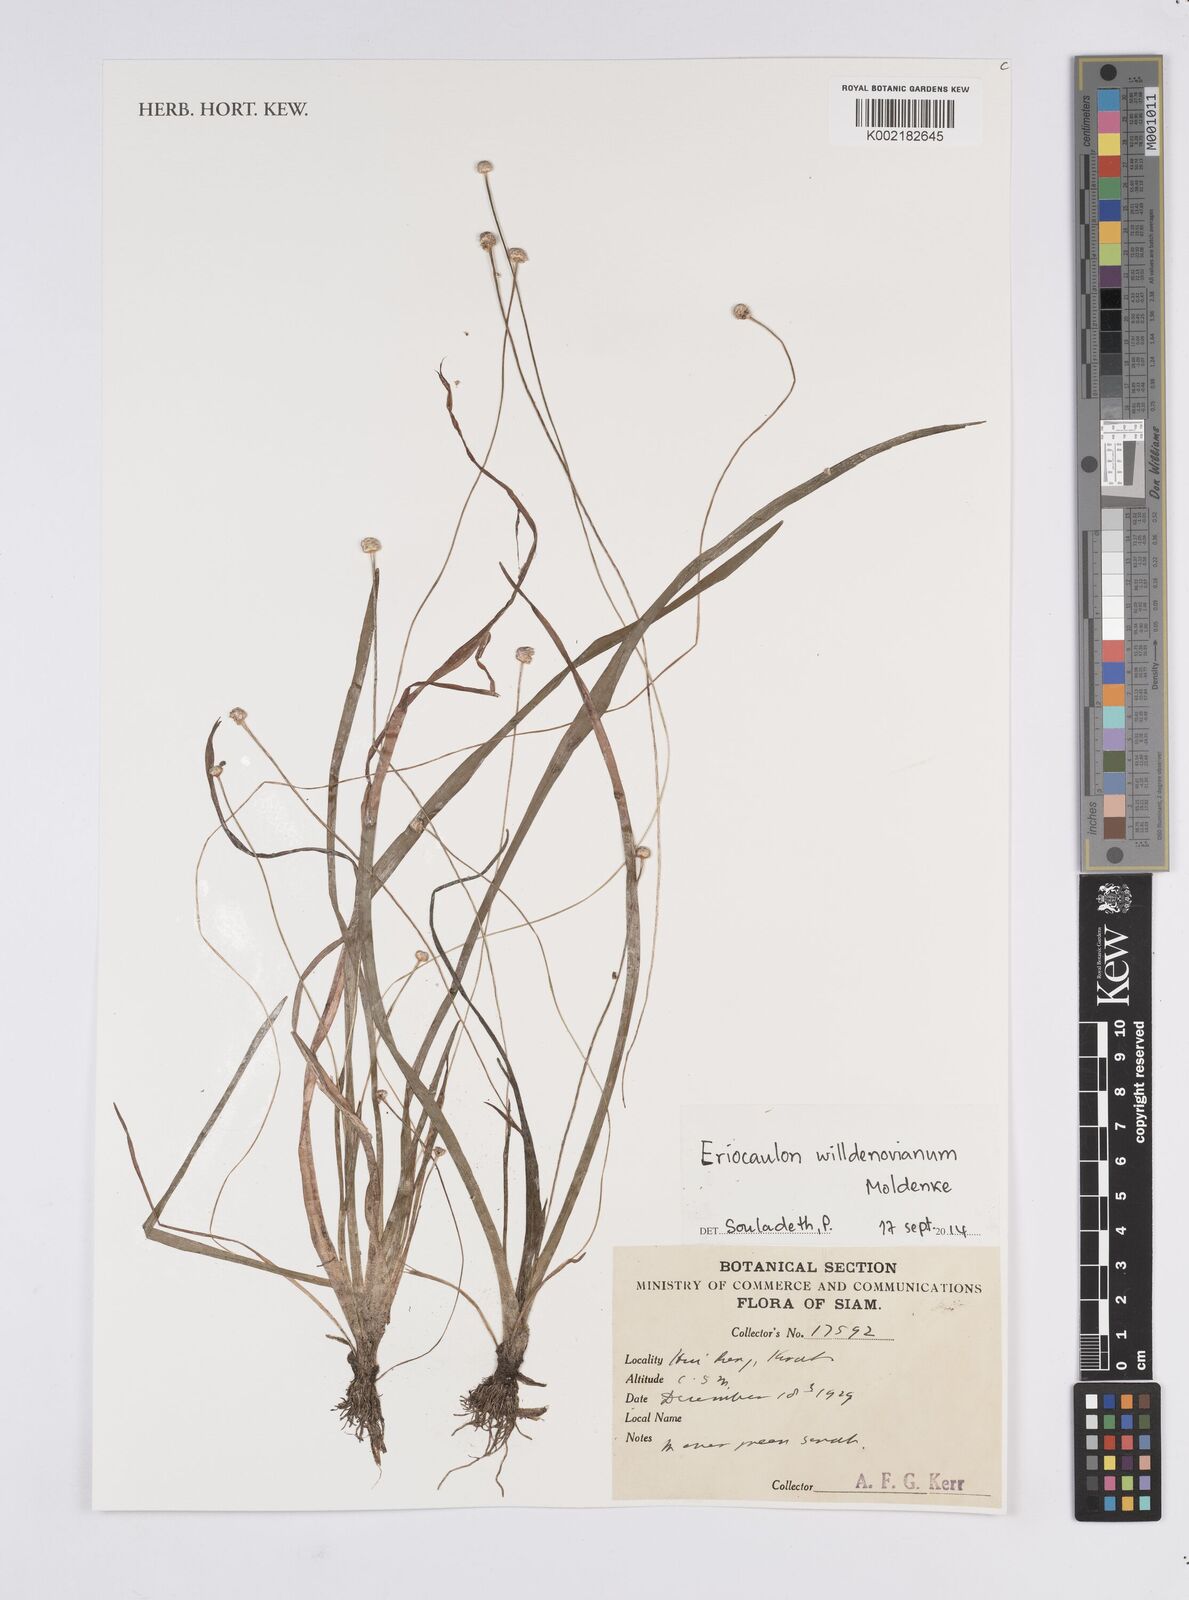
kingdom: Plantae
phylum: Tracheophyta
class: Liliopsida
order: Poales
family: Eriocaulaceae
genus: Eriocaulon
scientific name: Eriocaulon willdenovianum
